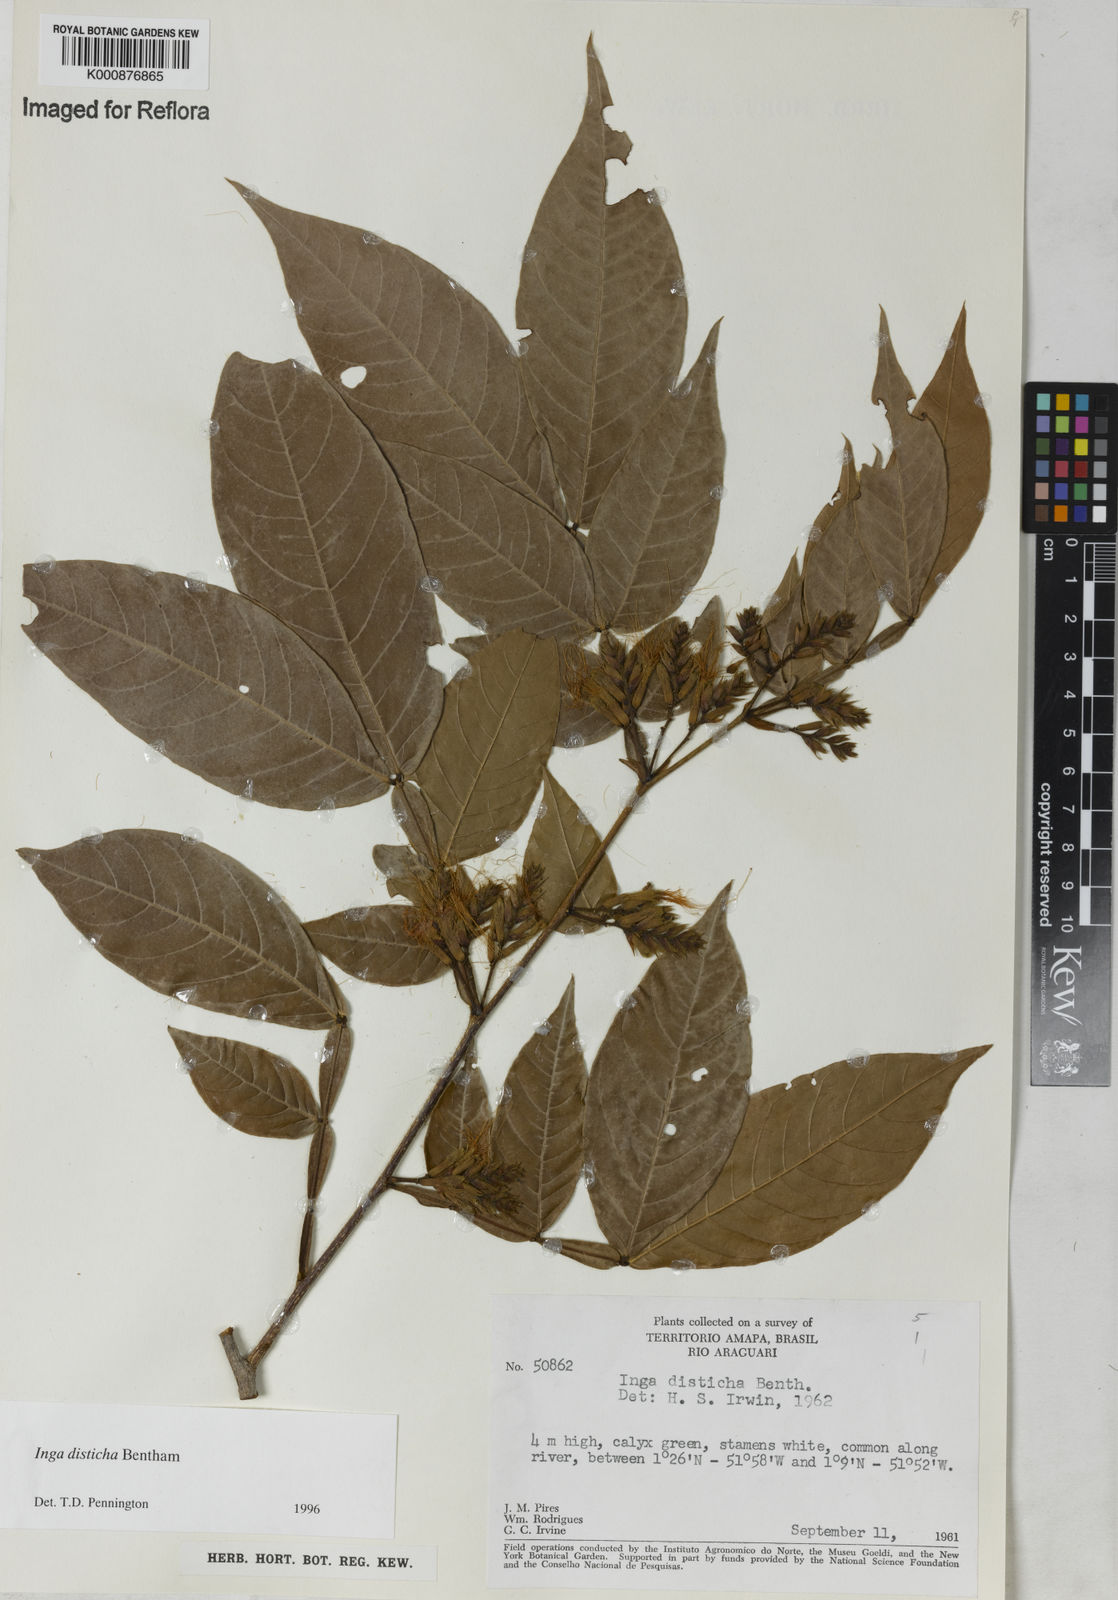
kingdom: Plantae
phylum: Tracheophyta
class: Magnoliopsida
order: Fabales
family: Fabaceae
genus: Inga
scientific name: Inga disticha
